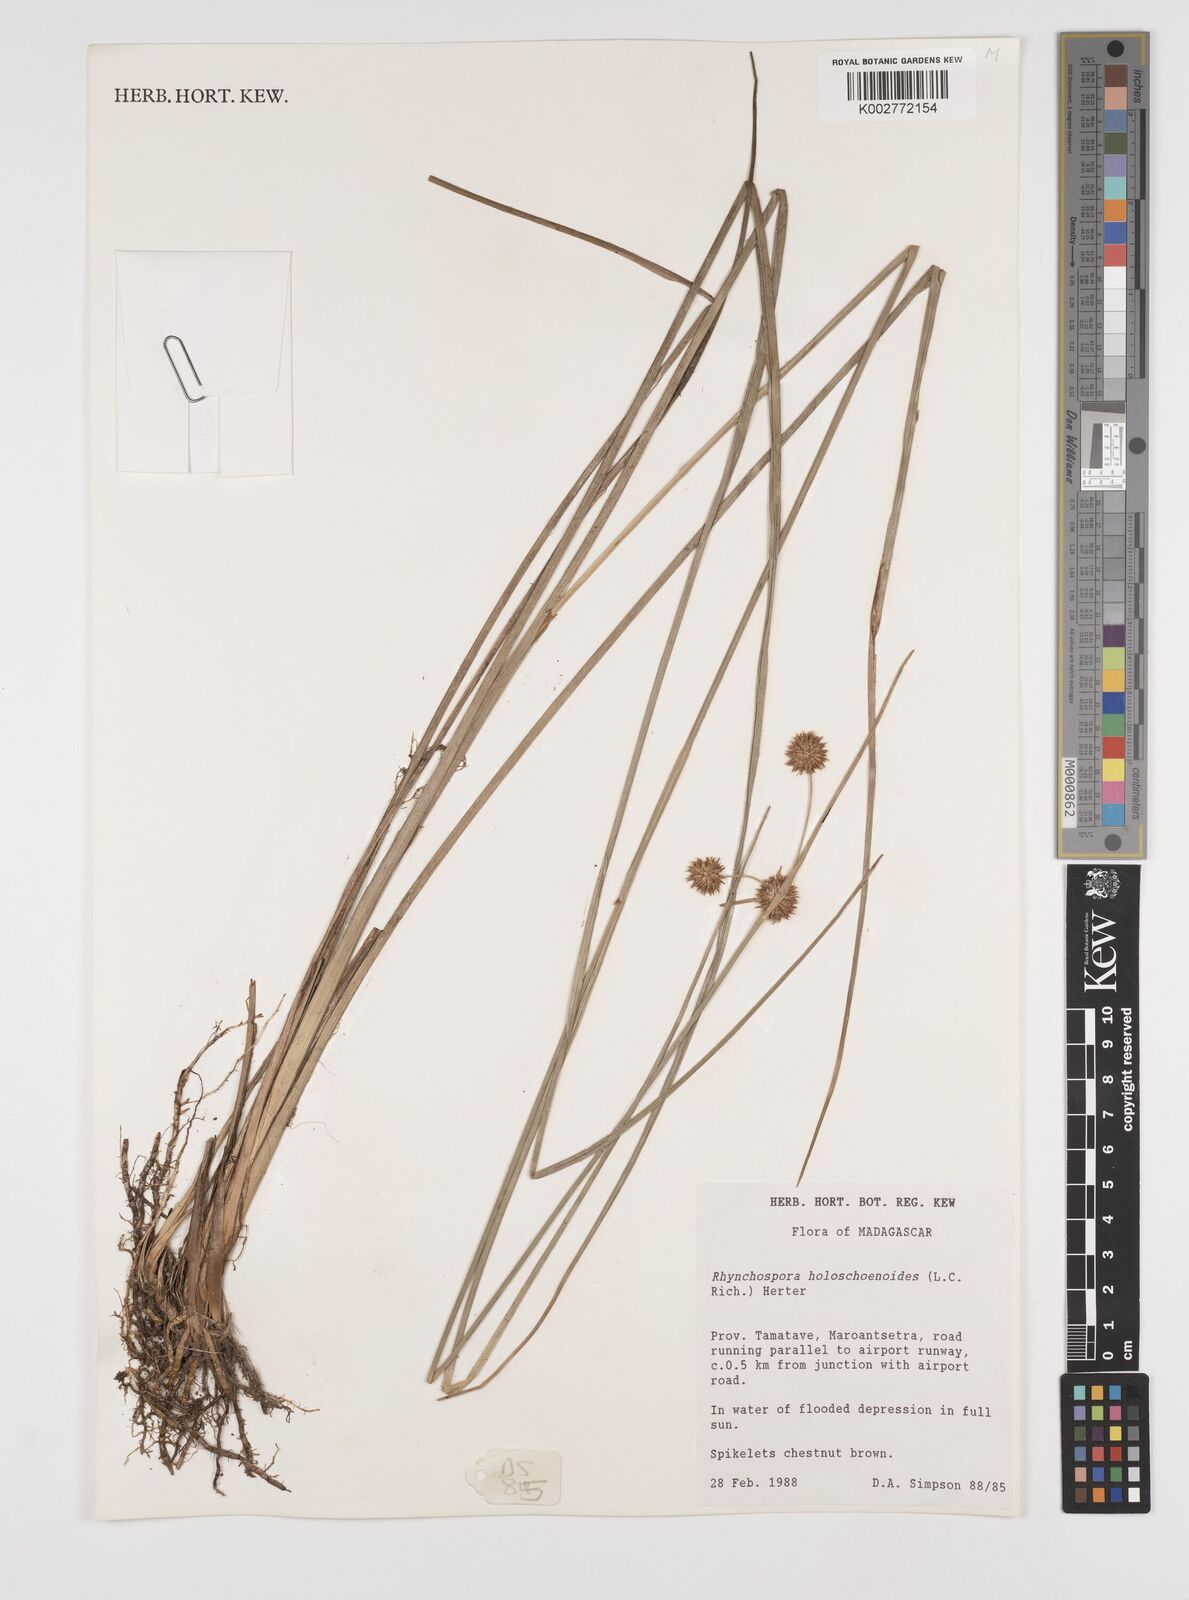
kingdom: Plantae
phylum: Tracheophyta
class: Liliopsida
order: Poales
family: Cyperaceae
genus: Rhynchospora
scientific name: Rhynchospora holoschoenoides
